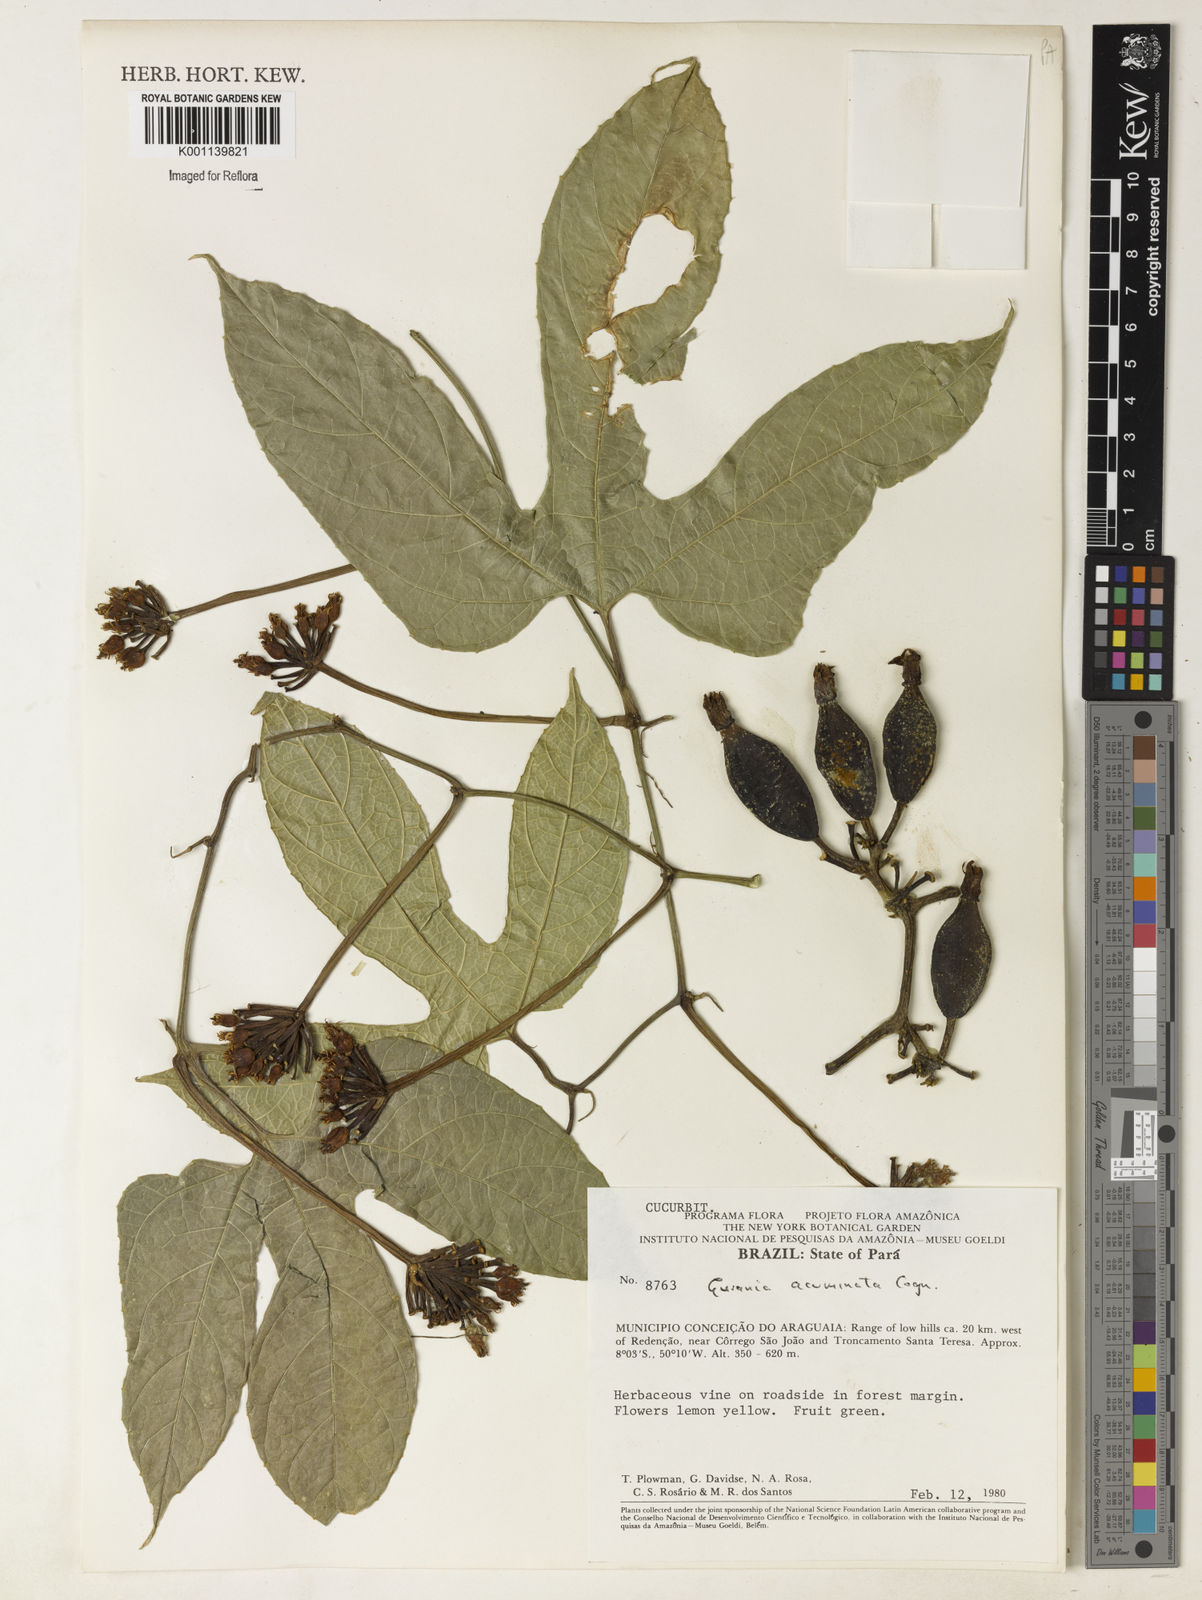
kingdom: Plantae
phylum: Tracheophyta
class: Magnoliopsida
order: Cucurbitales
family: Cucurbitaceae
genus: Gurania
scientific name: Gurania acuminata
